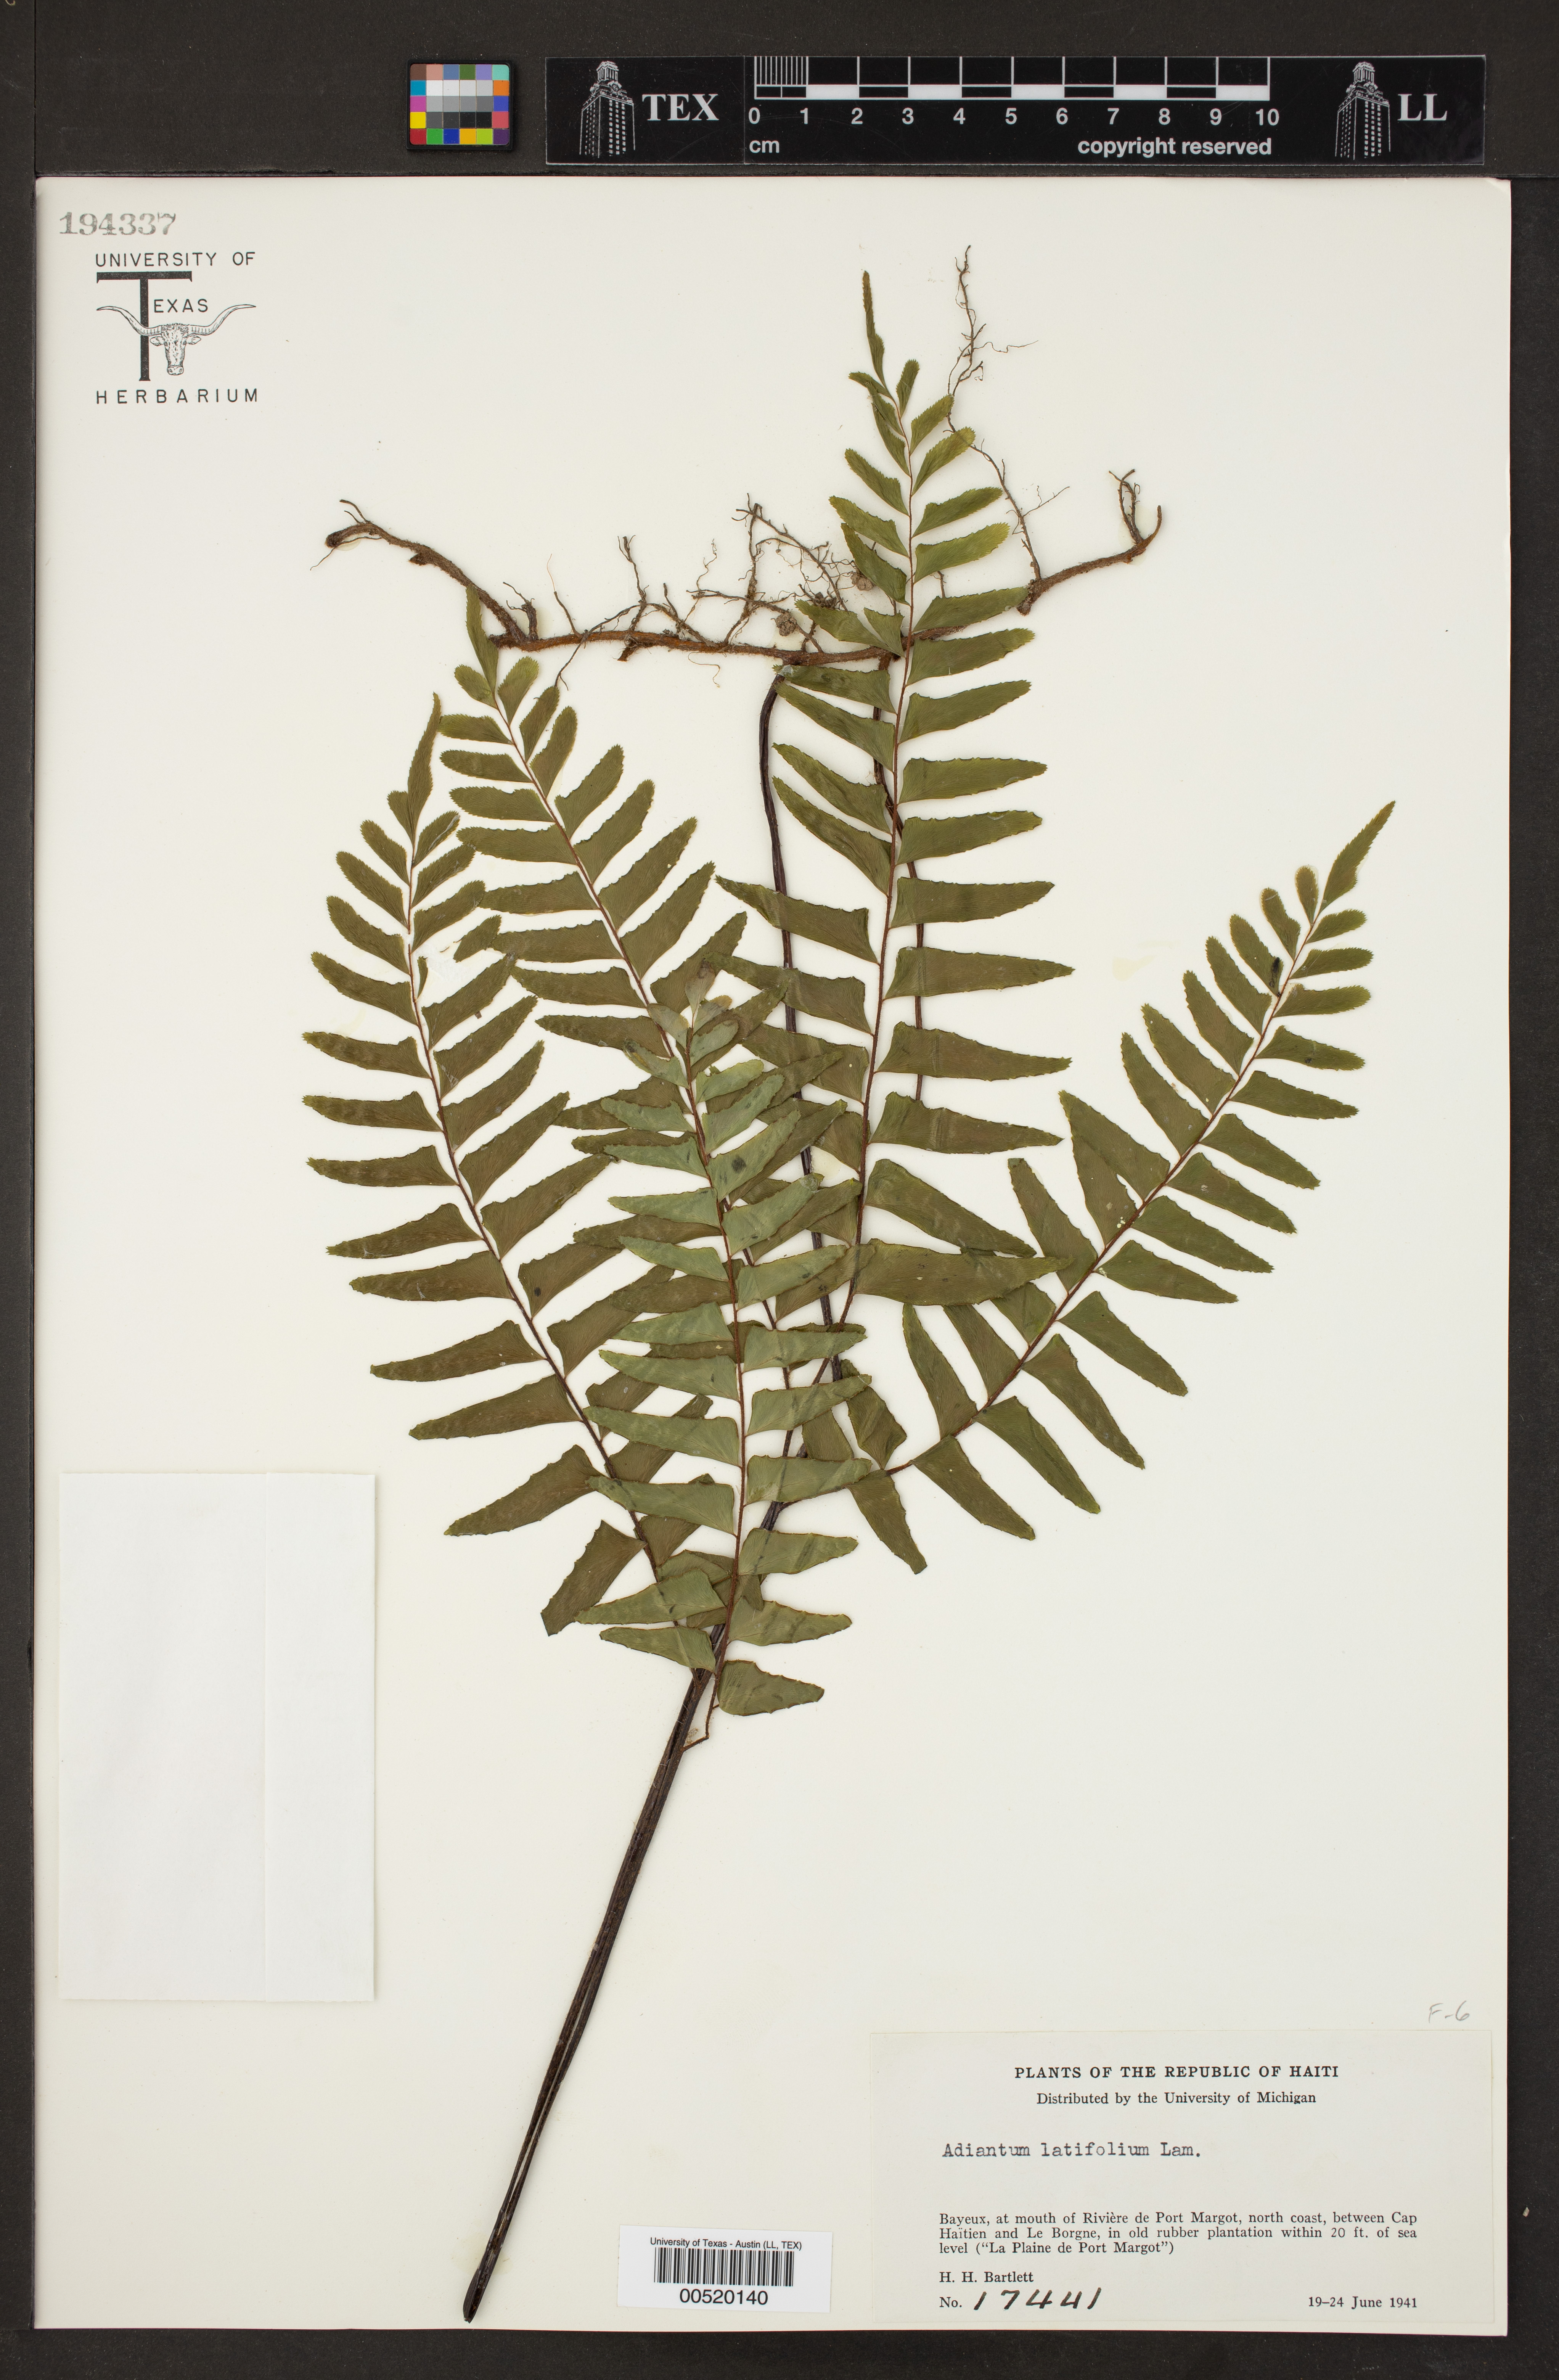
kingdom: Plantae
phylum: Tracheophyta
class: Polypodiopsida
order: Polypodiales
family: Pteridaceae
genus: Adiantum
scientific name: Adiantum latifolium
